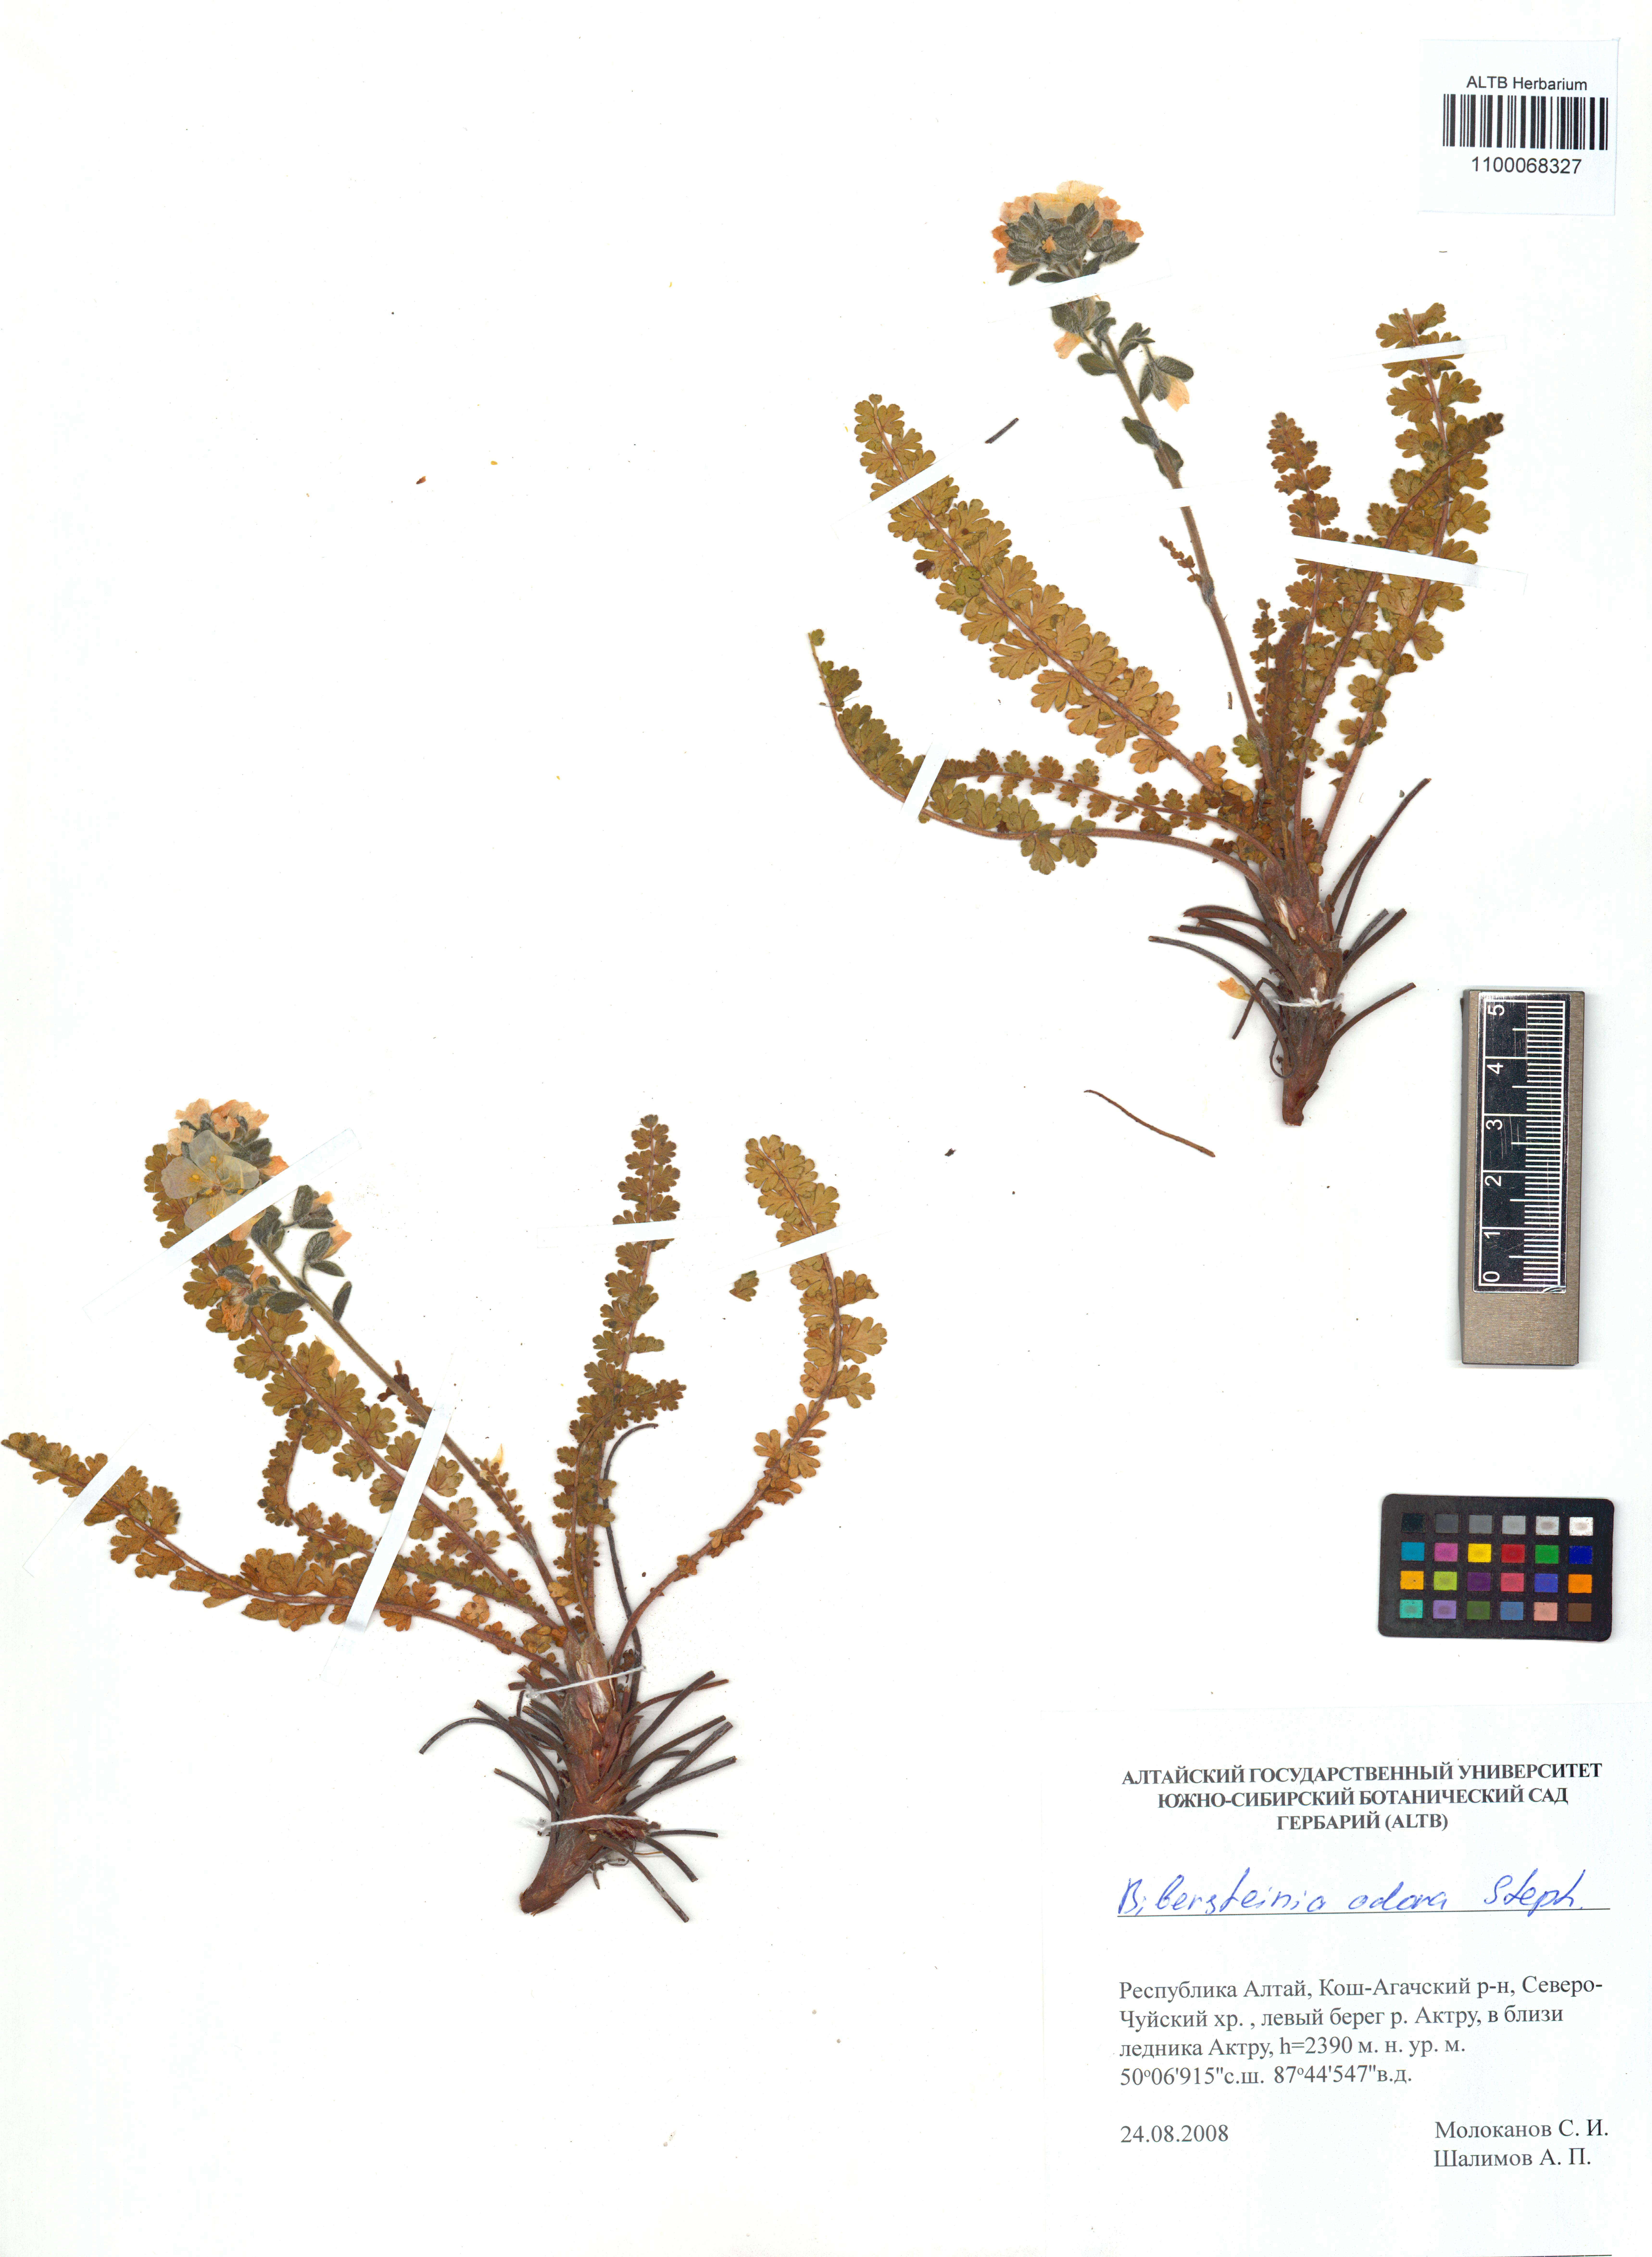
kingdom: Plantae
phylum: Tracheophyta
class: Magnoliopsida
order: Sapindales
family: Biebersteiniaceae
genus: Biebersteinia
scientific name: Biebersteinia odora
